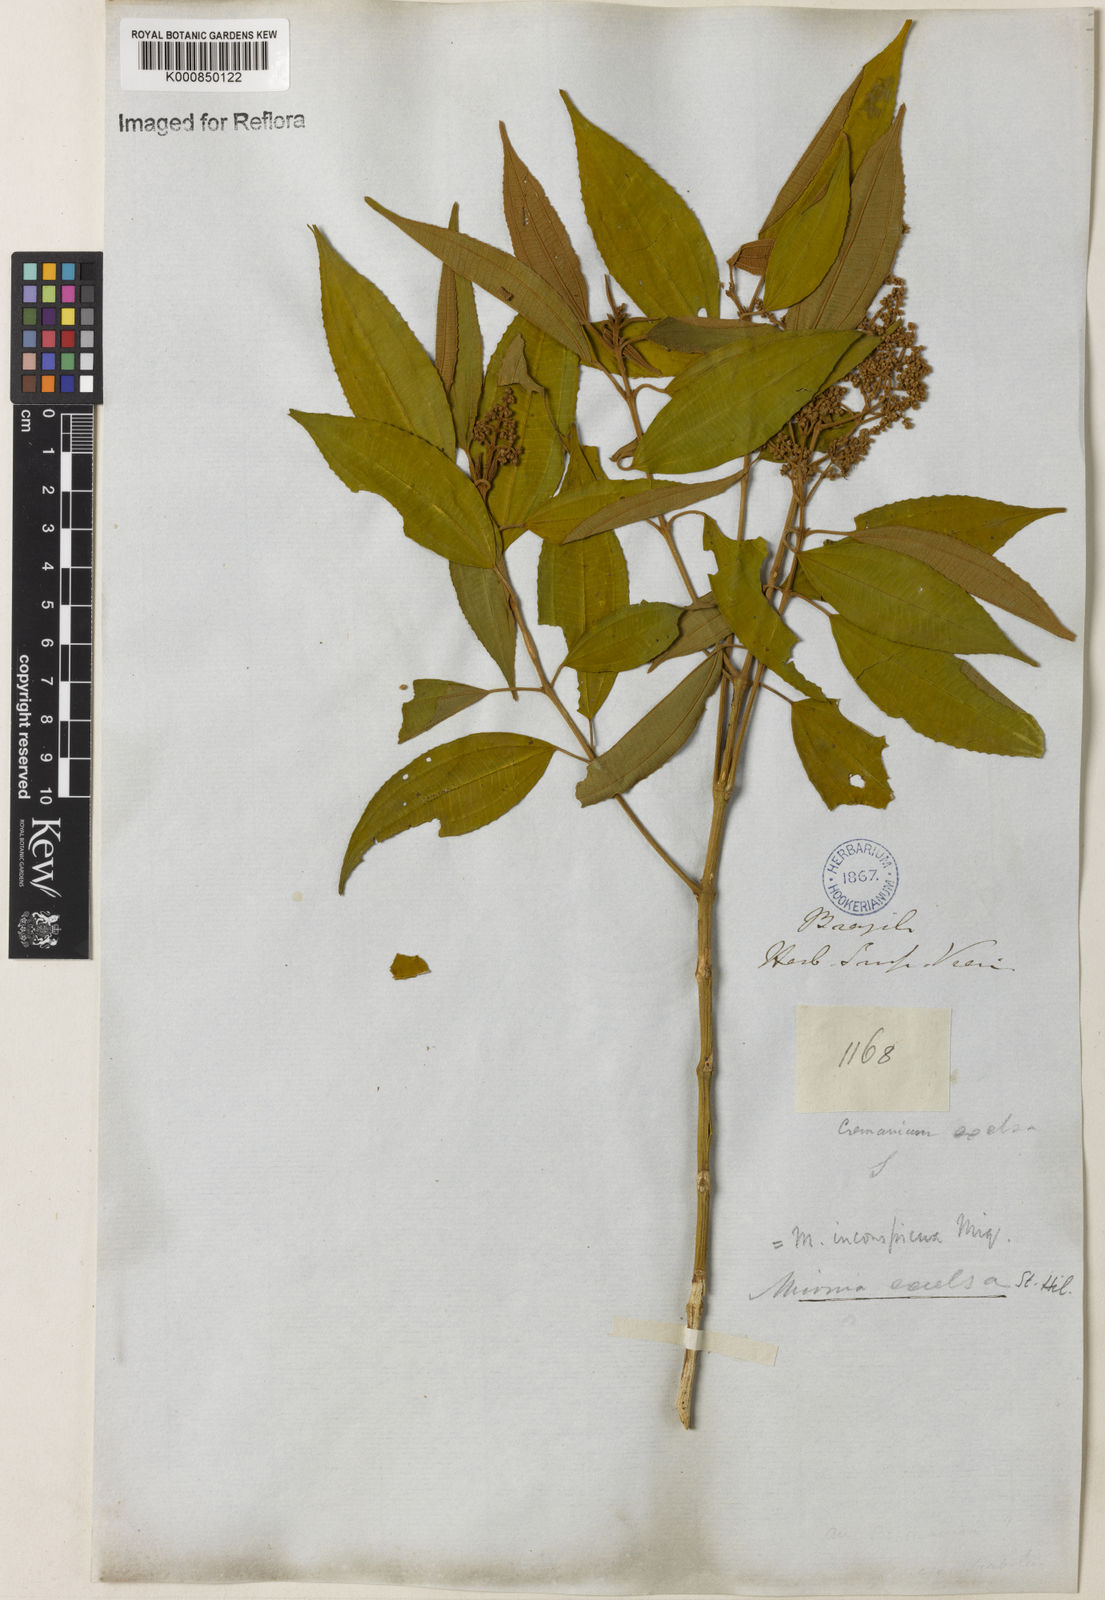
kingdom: Plantae
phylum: Tracheophyta
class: Magnoliopsida
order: Myrtales
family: Melastomataceae
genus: Miconia
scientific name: Miconia inconspicua
